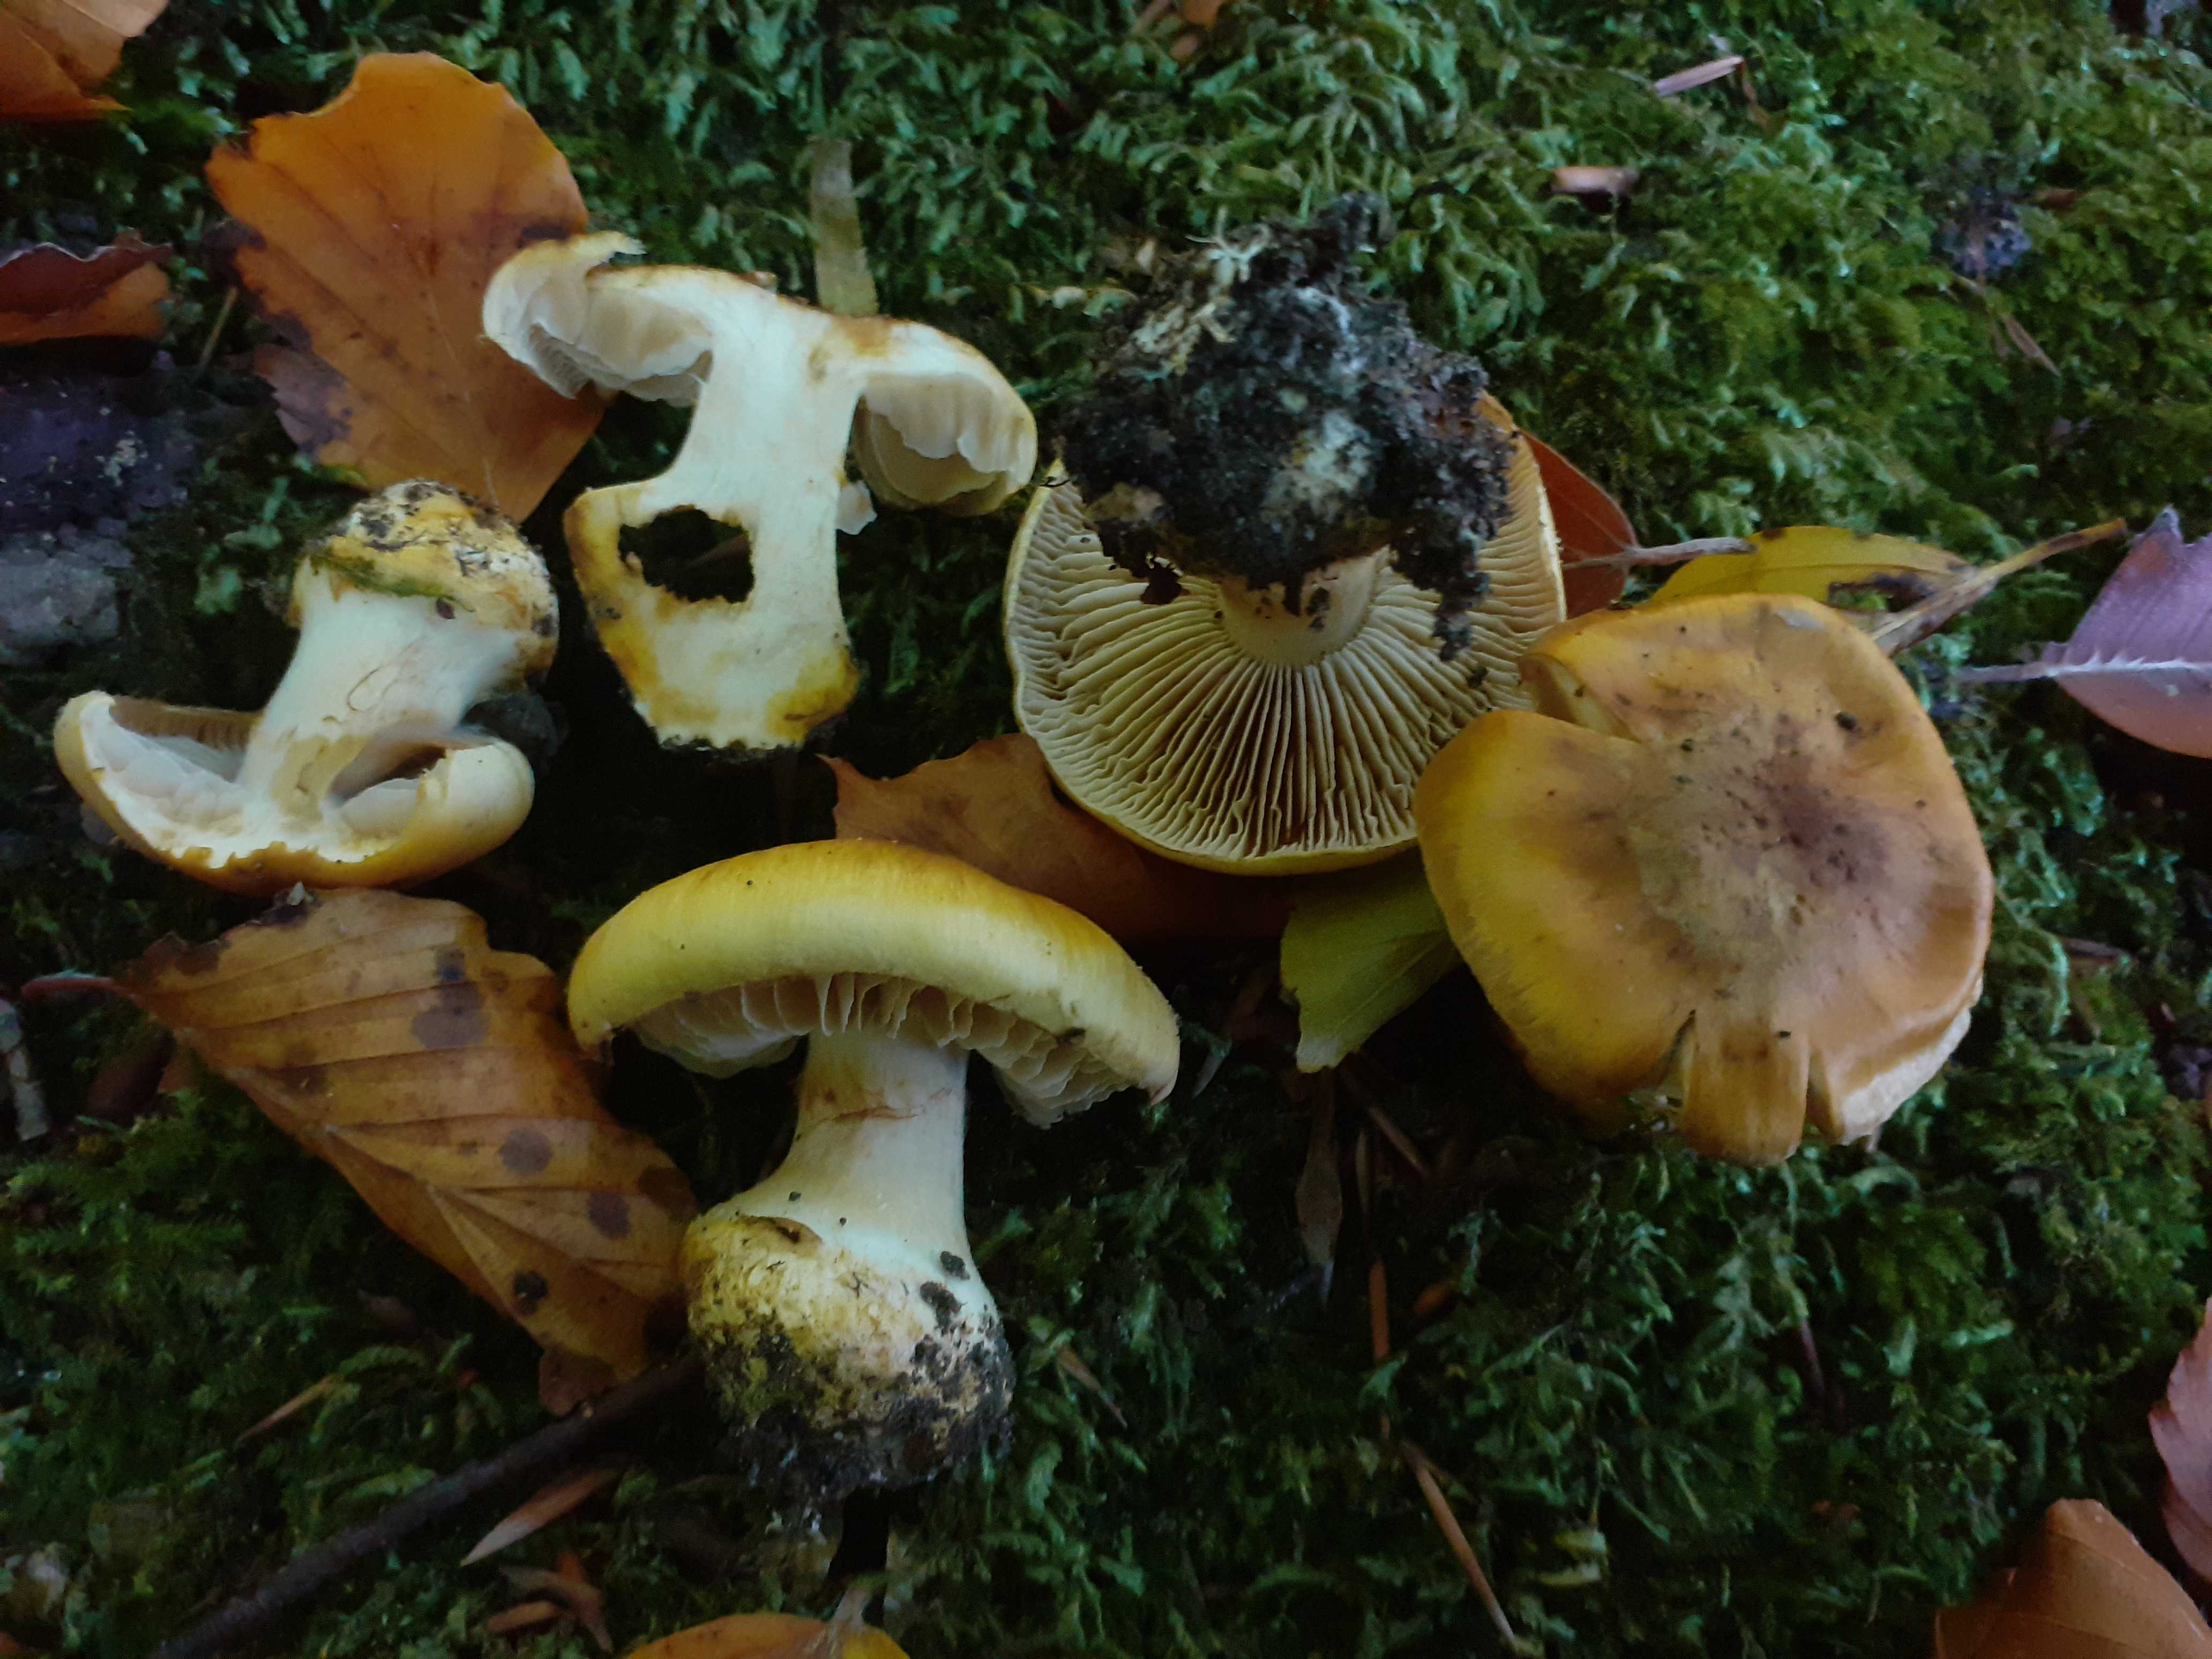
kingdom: Fungi
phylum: Basidiomycota
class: Agaricomycetes
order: Agaricales
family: Cortinariaceae
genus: Phlegmacium
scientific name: Phlegmacium
